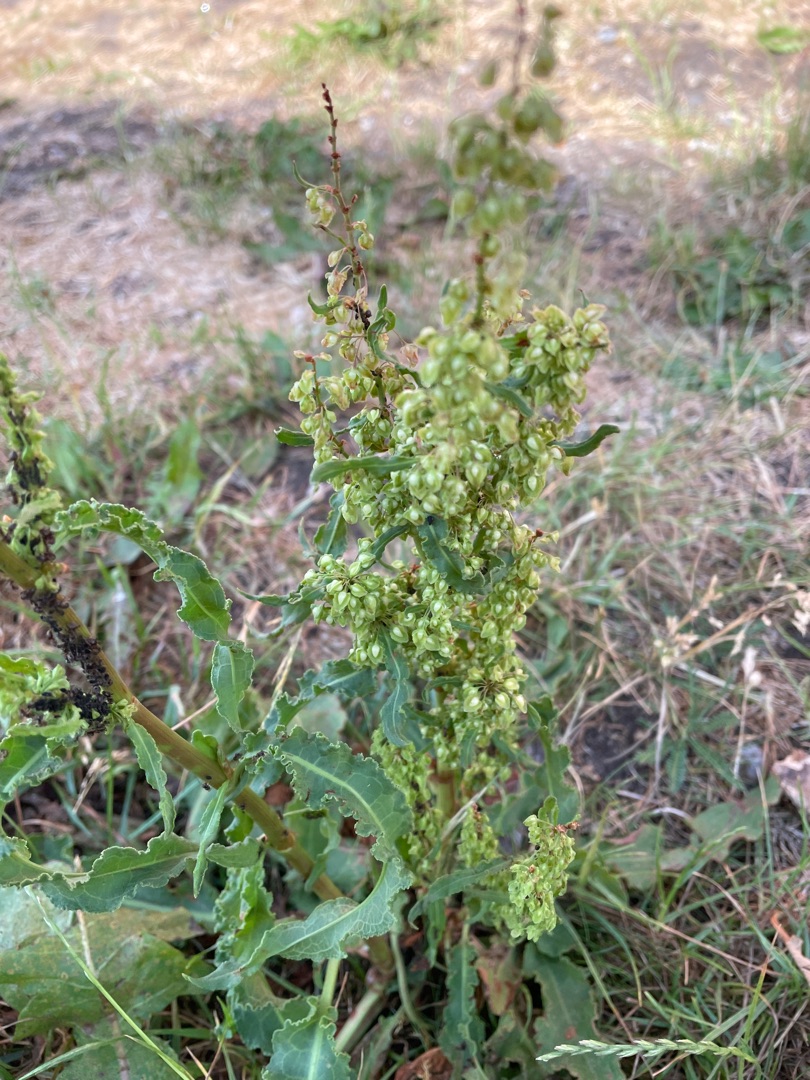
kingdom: Plantae
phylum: Tracheophyta
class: Magnoliopsida
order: Caryophyllales
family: Polygonaceae
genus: Rumex
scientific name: Rumex crispus
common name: Kruset skræppe
